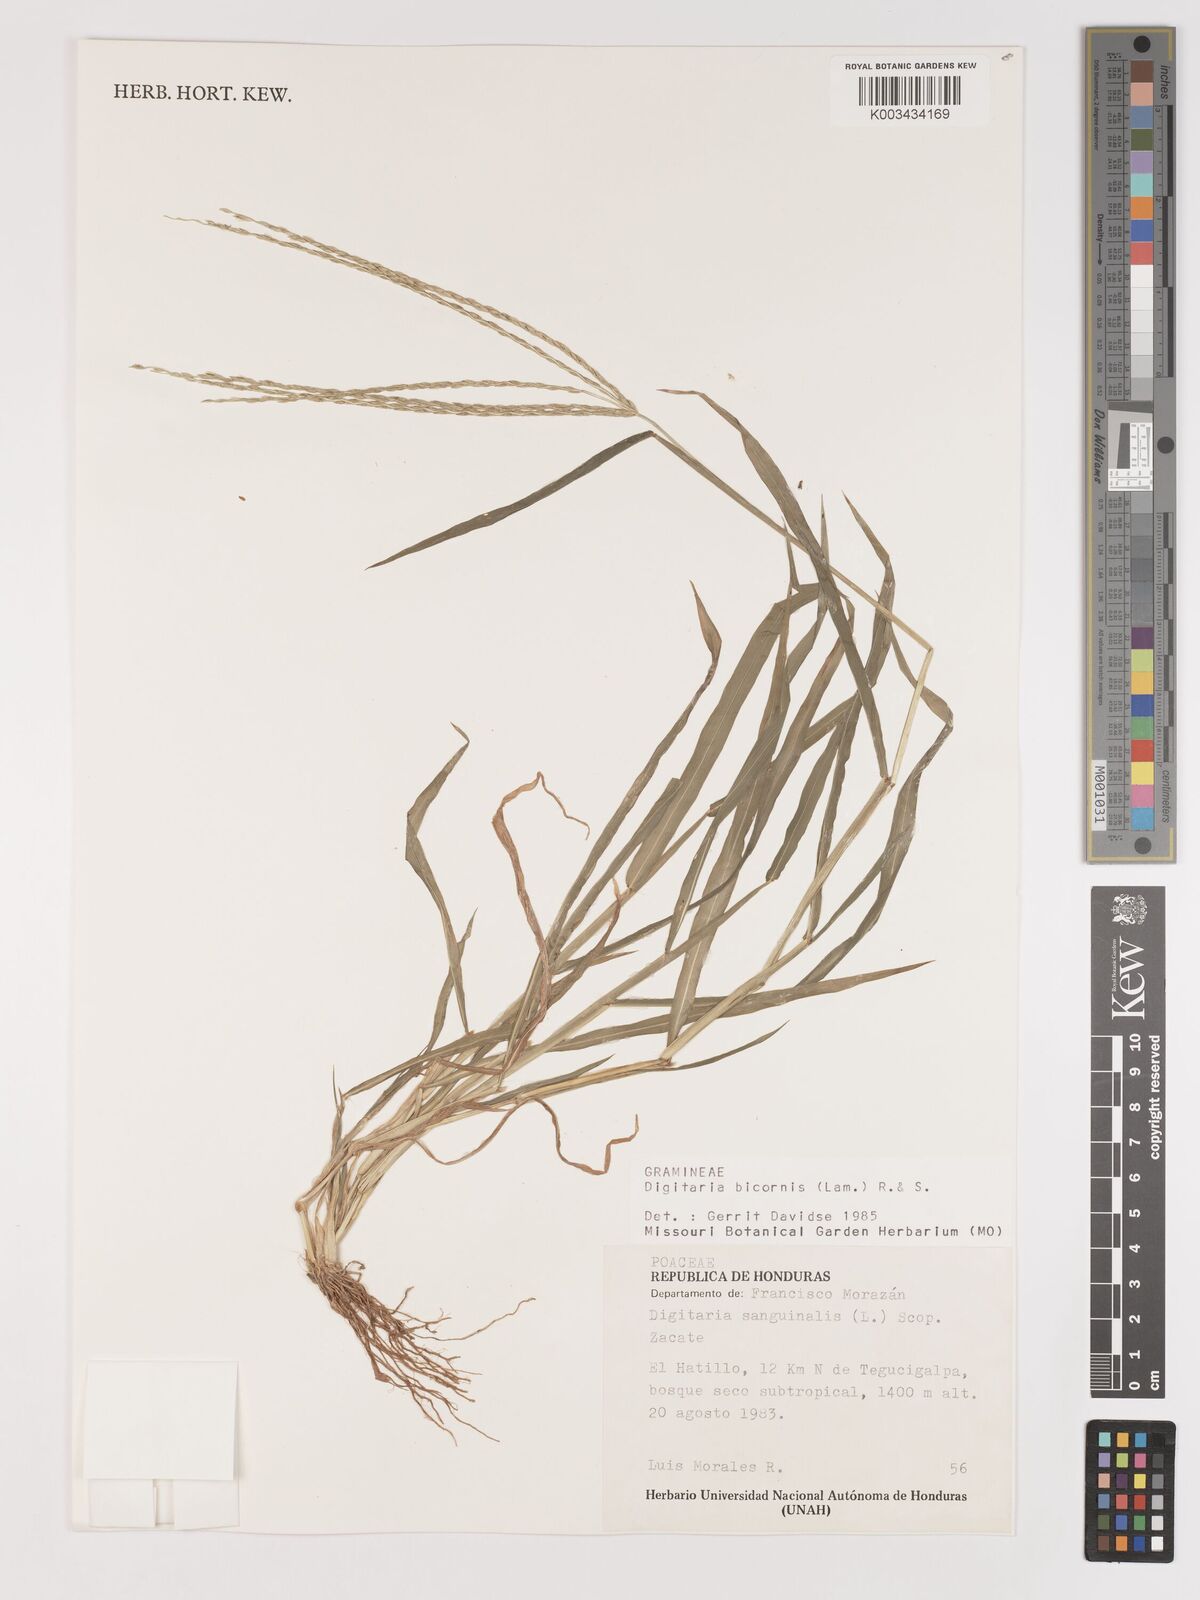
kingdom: Plantae
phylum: Tracheophyta
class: Liliopsida
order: Poales
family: Poaceae
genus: Digitaria
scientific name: Digitaria ciliaris
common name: Tropical finger-grass
